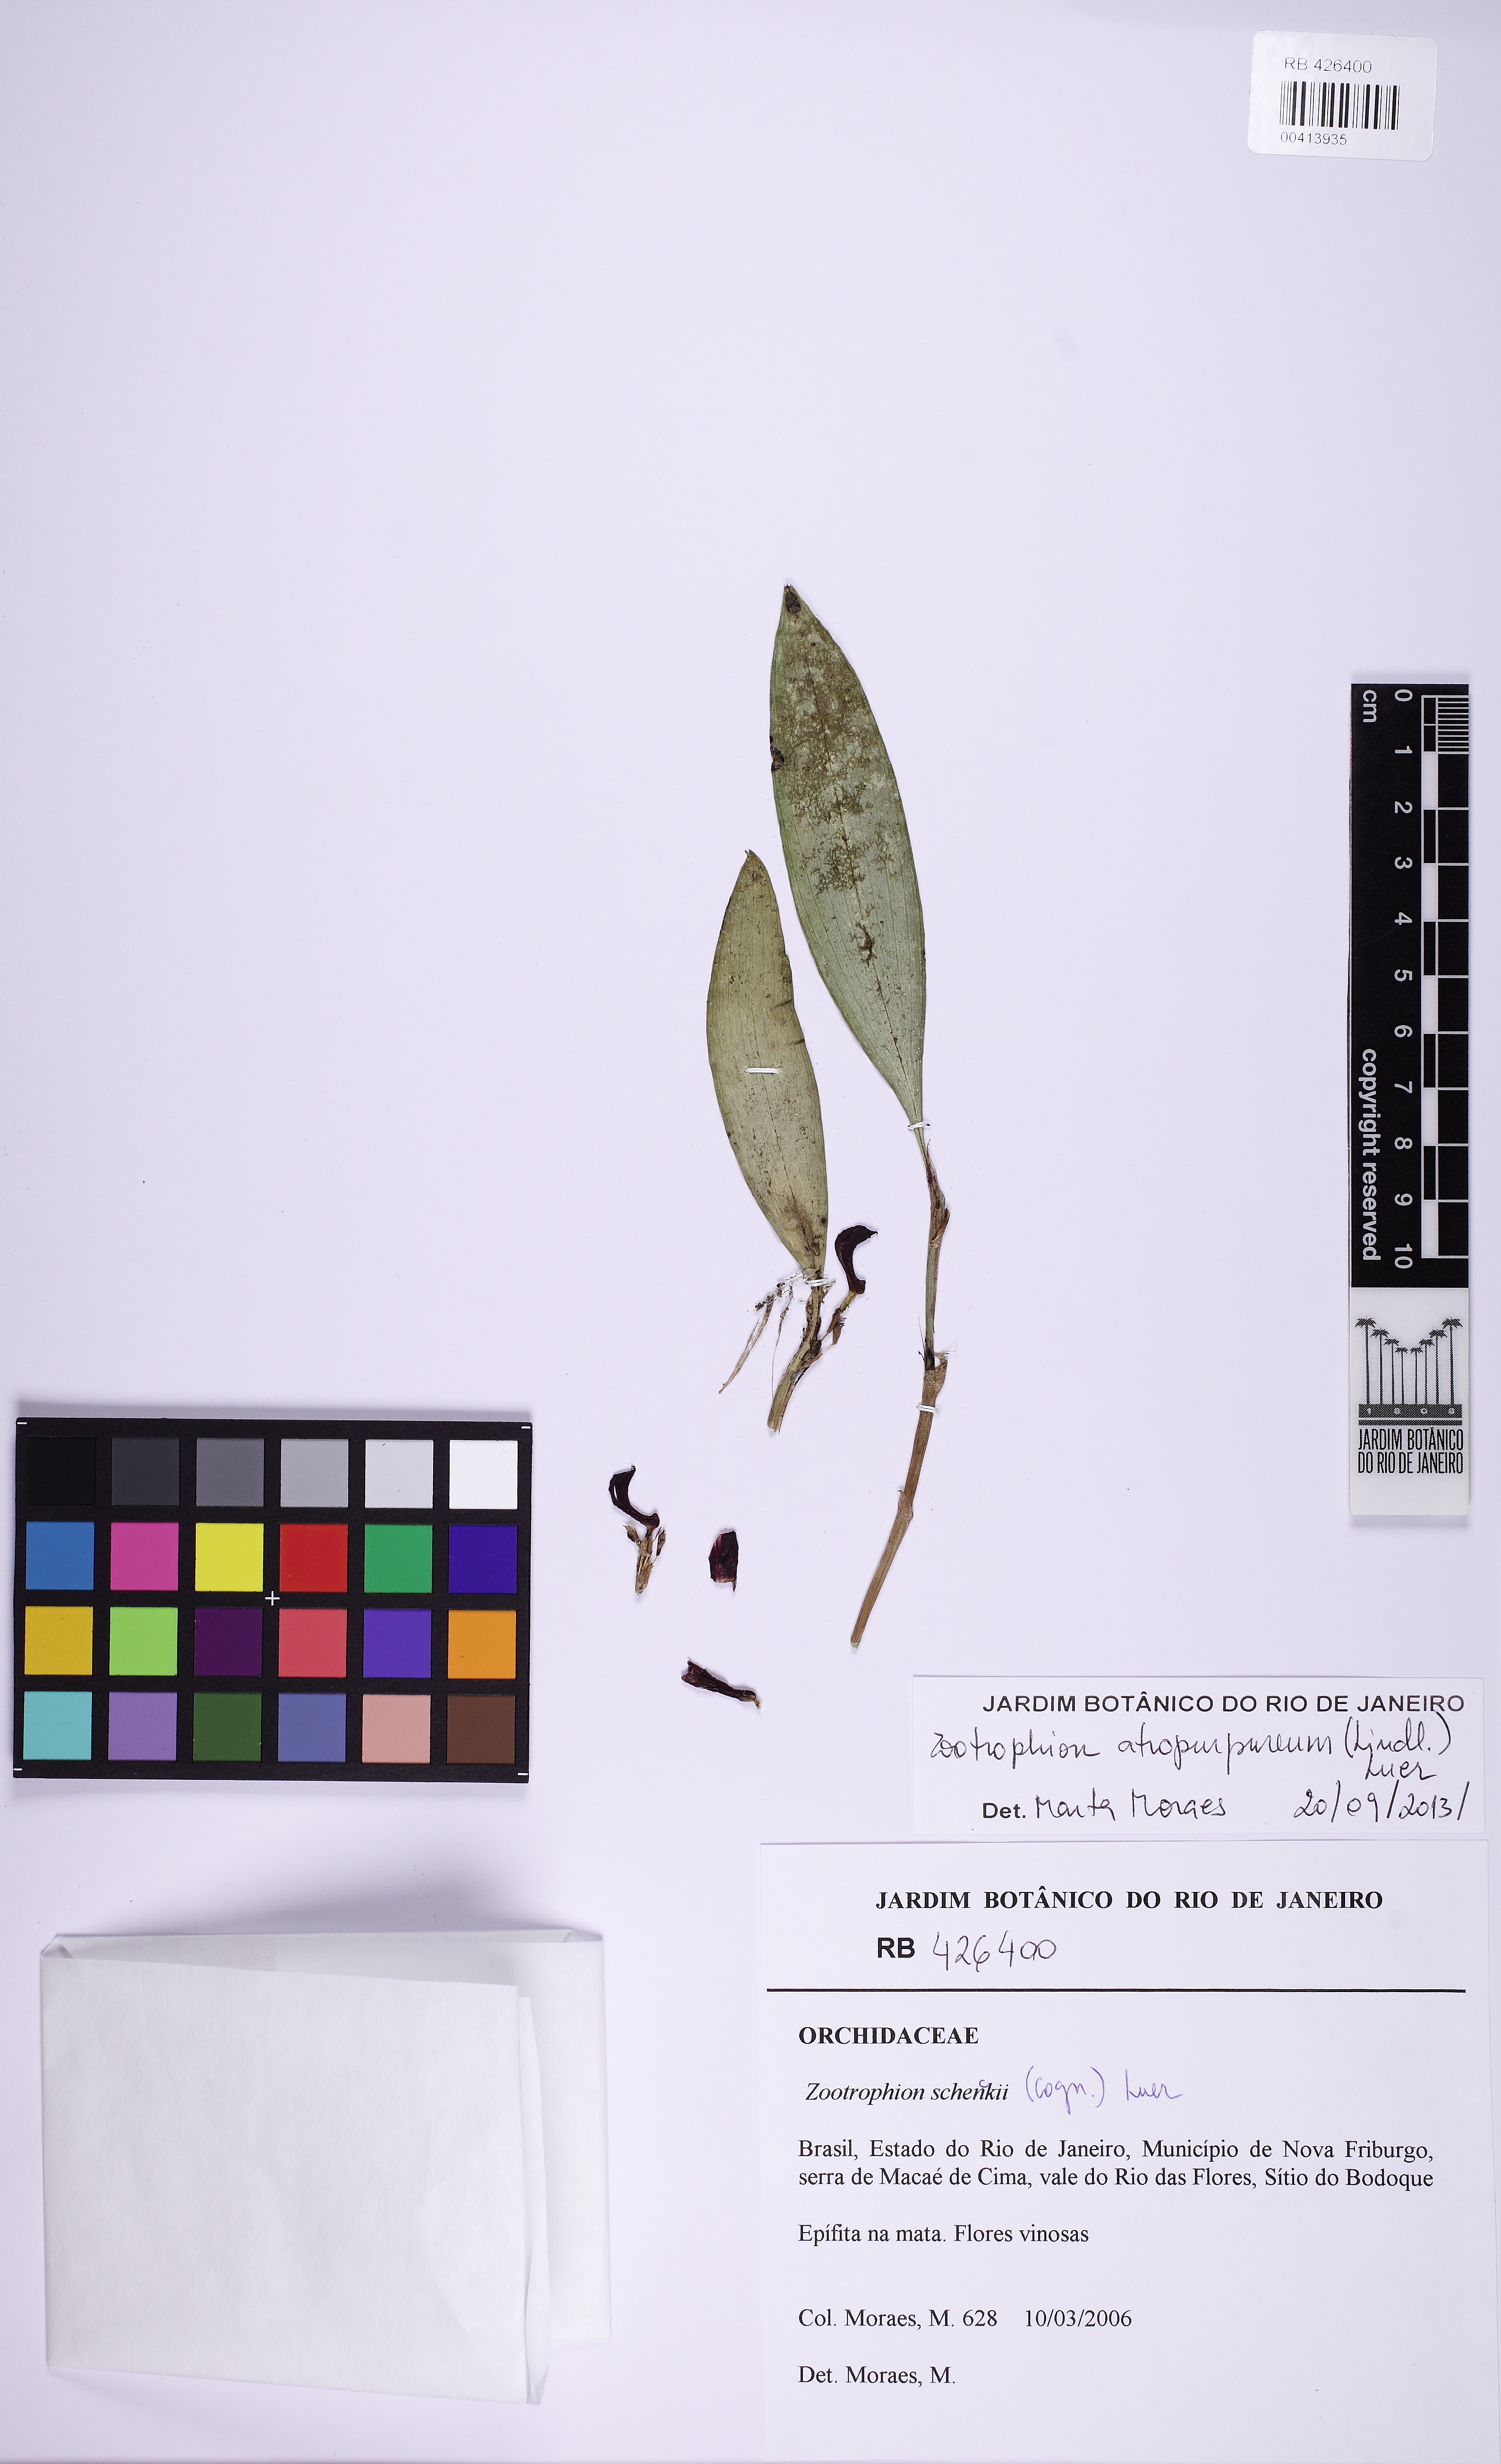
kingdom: Plantae
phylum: Tracheophyta
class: Liliopsida
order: Asparagales
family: Orchidaceae
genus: Zootrophion
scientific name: Zootrophion atropurpureum
